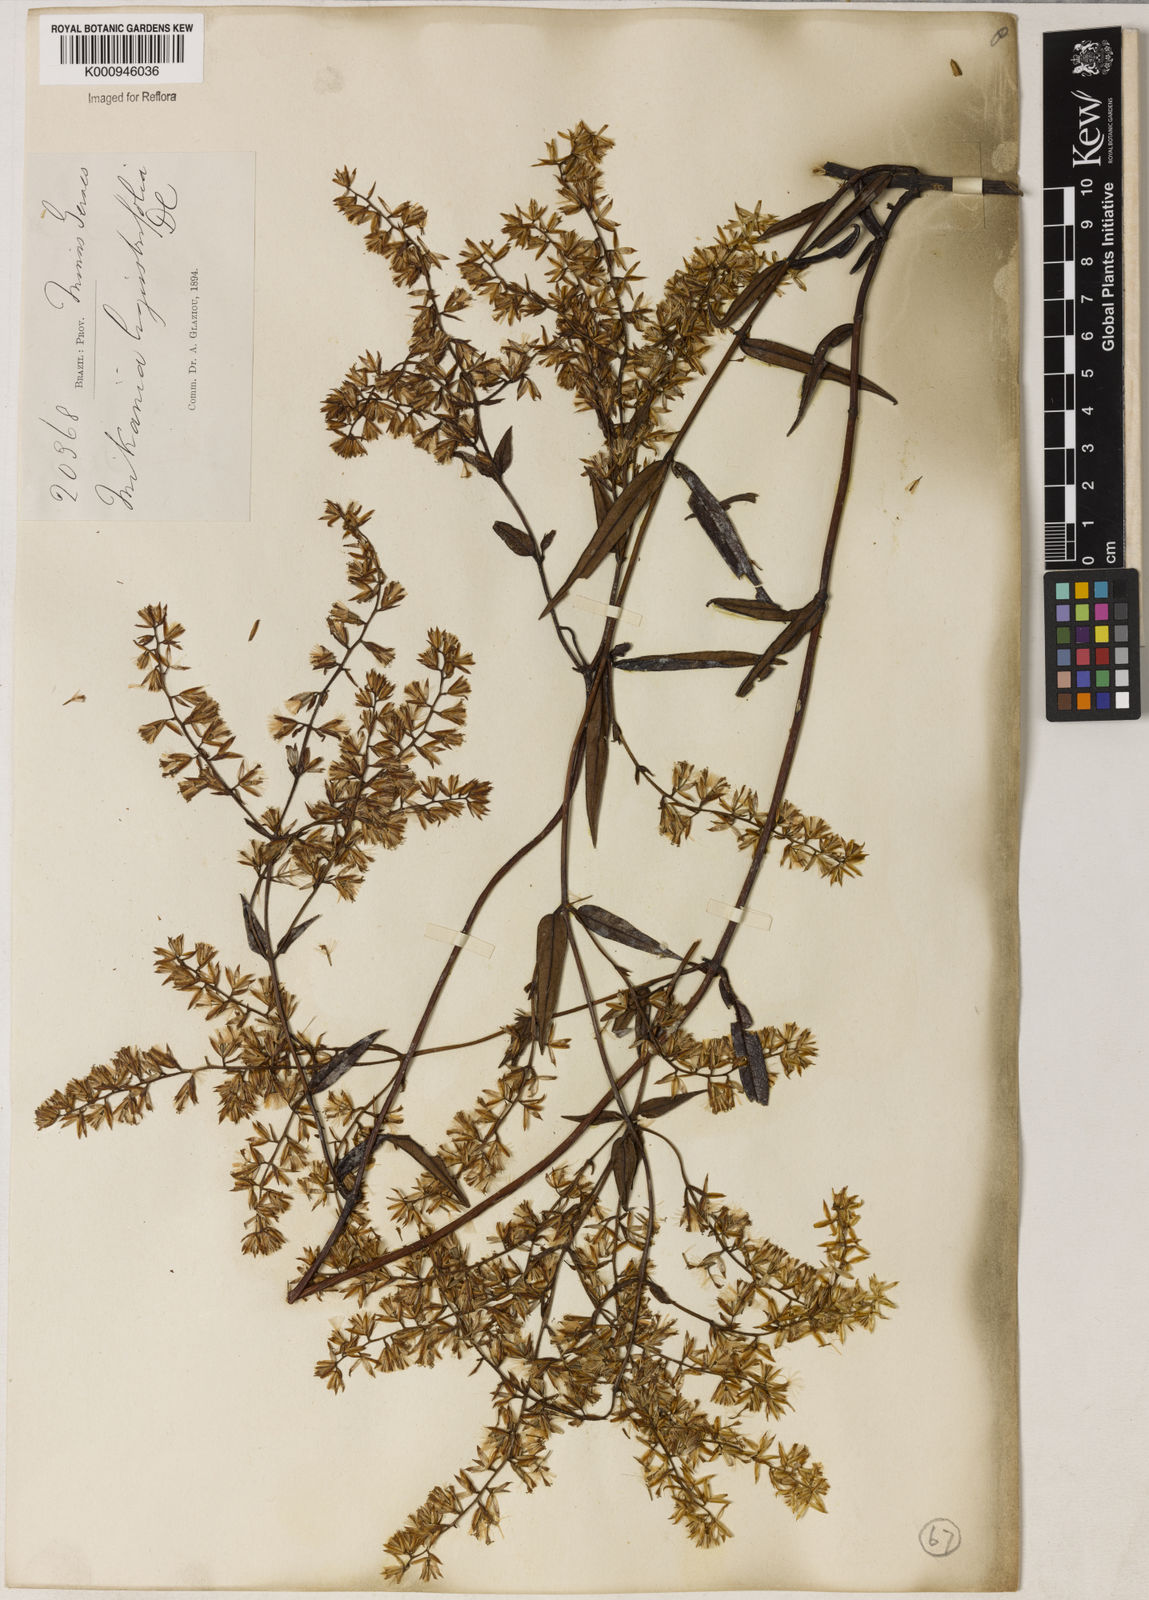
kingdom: Plantae
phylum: Tracheophyta
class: Magnoliopsida
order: Asterales
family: Asteraceae
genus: Mikania
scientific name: Mikania ligustrifolia
